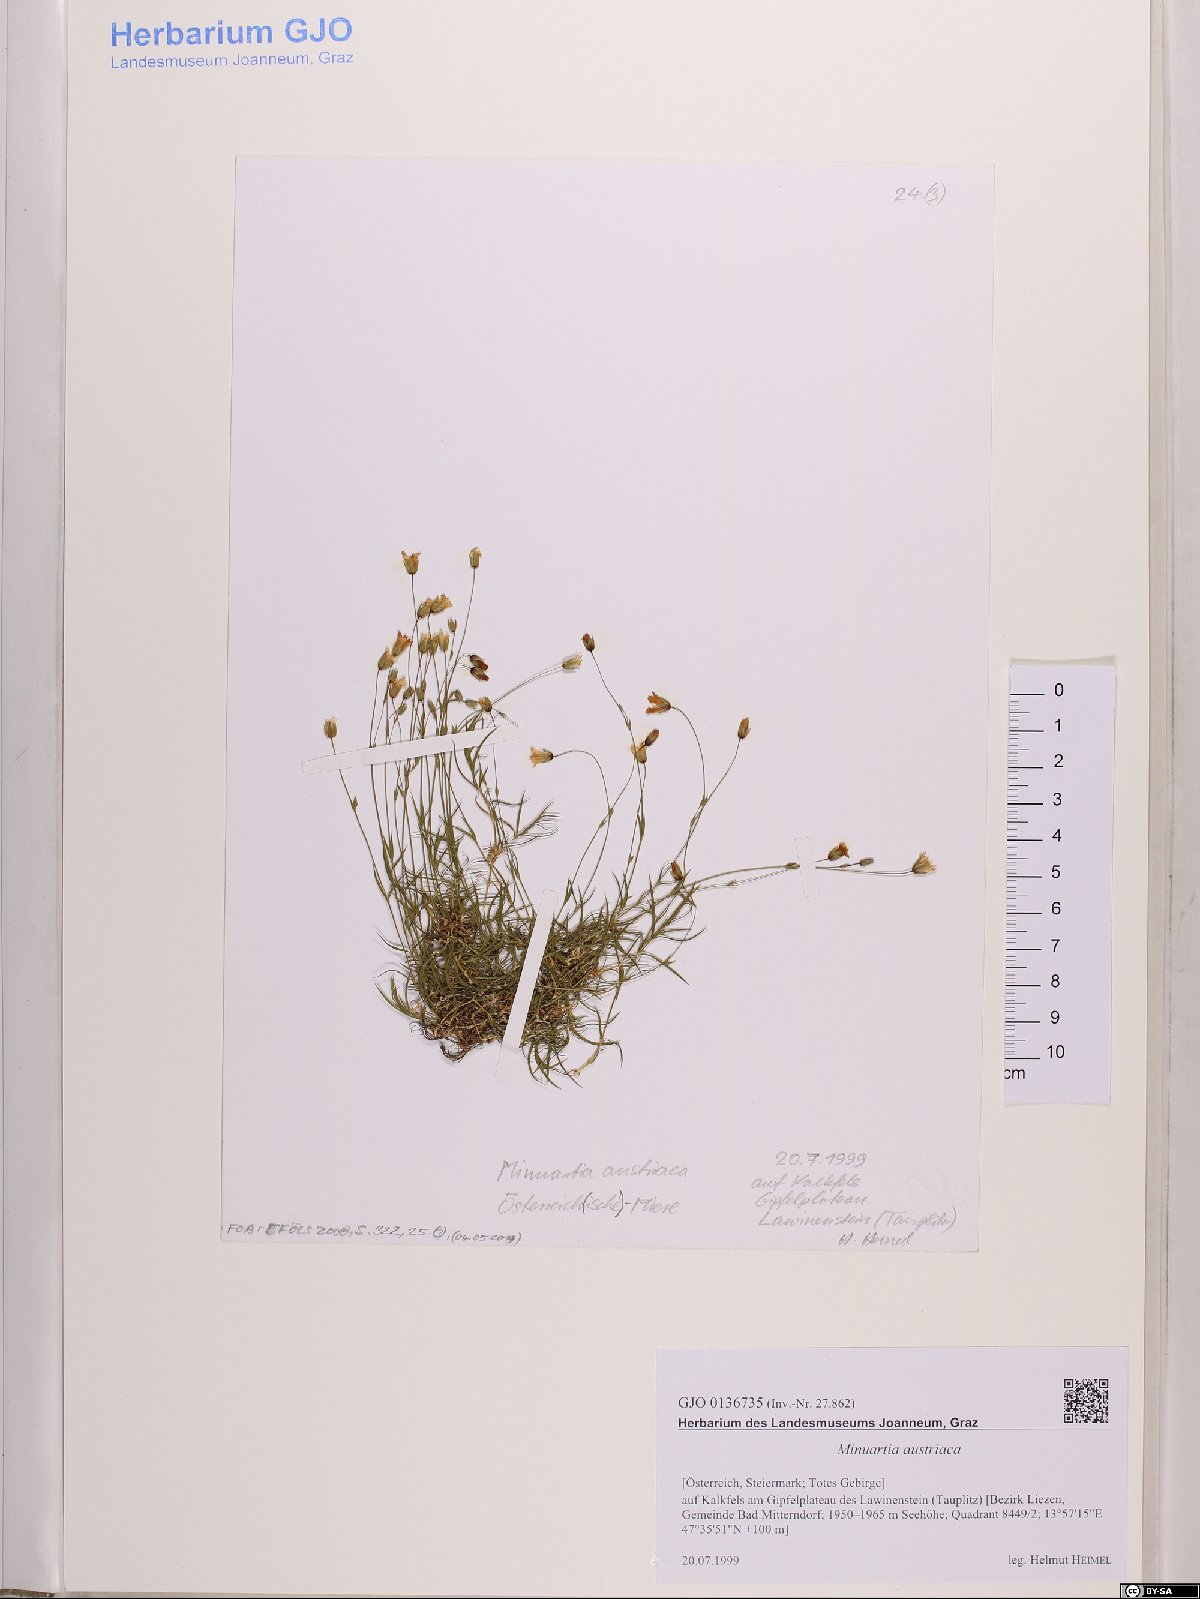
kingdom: Plantae
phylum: Tracheophyta
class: Magnoliopsida
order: Caryophyllales
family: Caryophyllaceae
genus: Sabulina
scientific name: Sabulina austriaca
